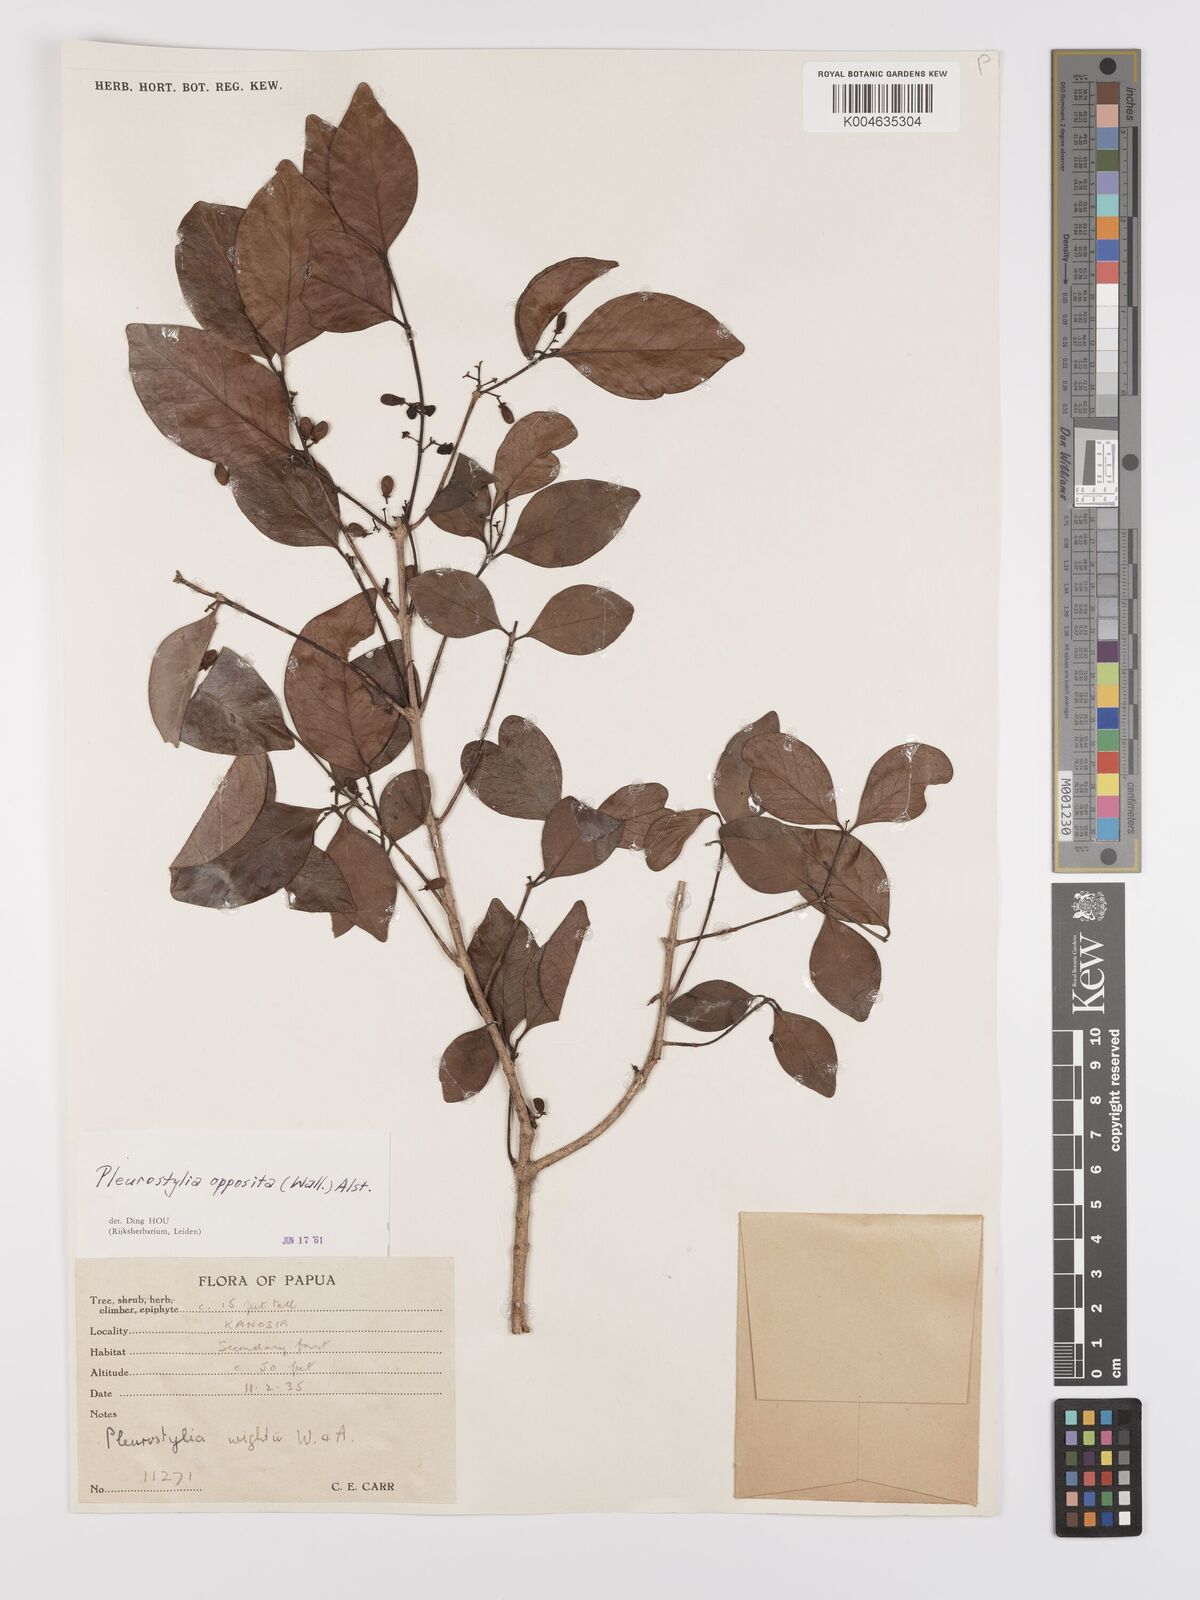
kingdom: Plantae
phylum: Tracheophyta
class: Magnoliopsida
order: Celastrales
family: Celastraceae
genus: Pleurostylia
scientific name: Pleurostylia opposita
